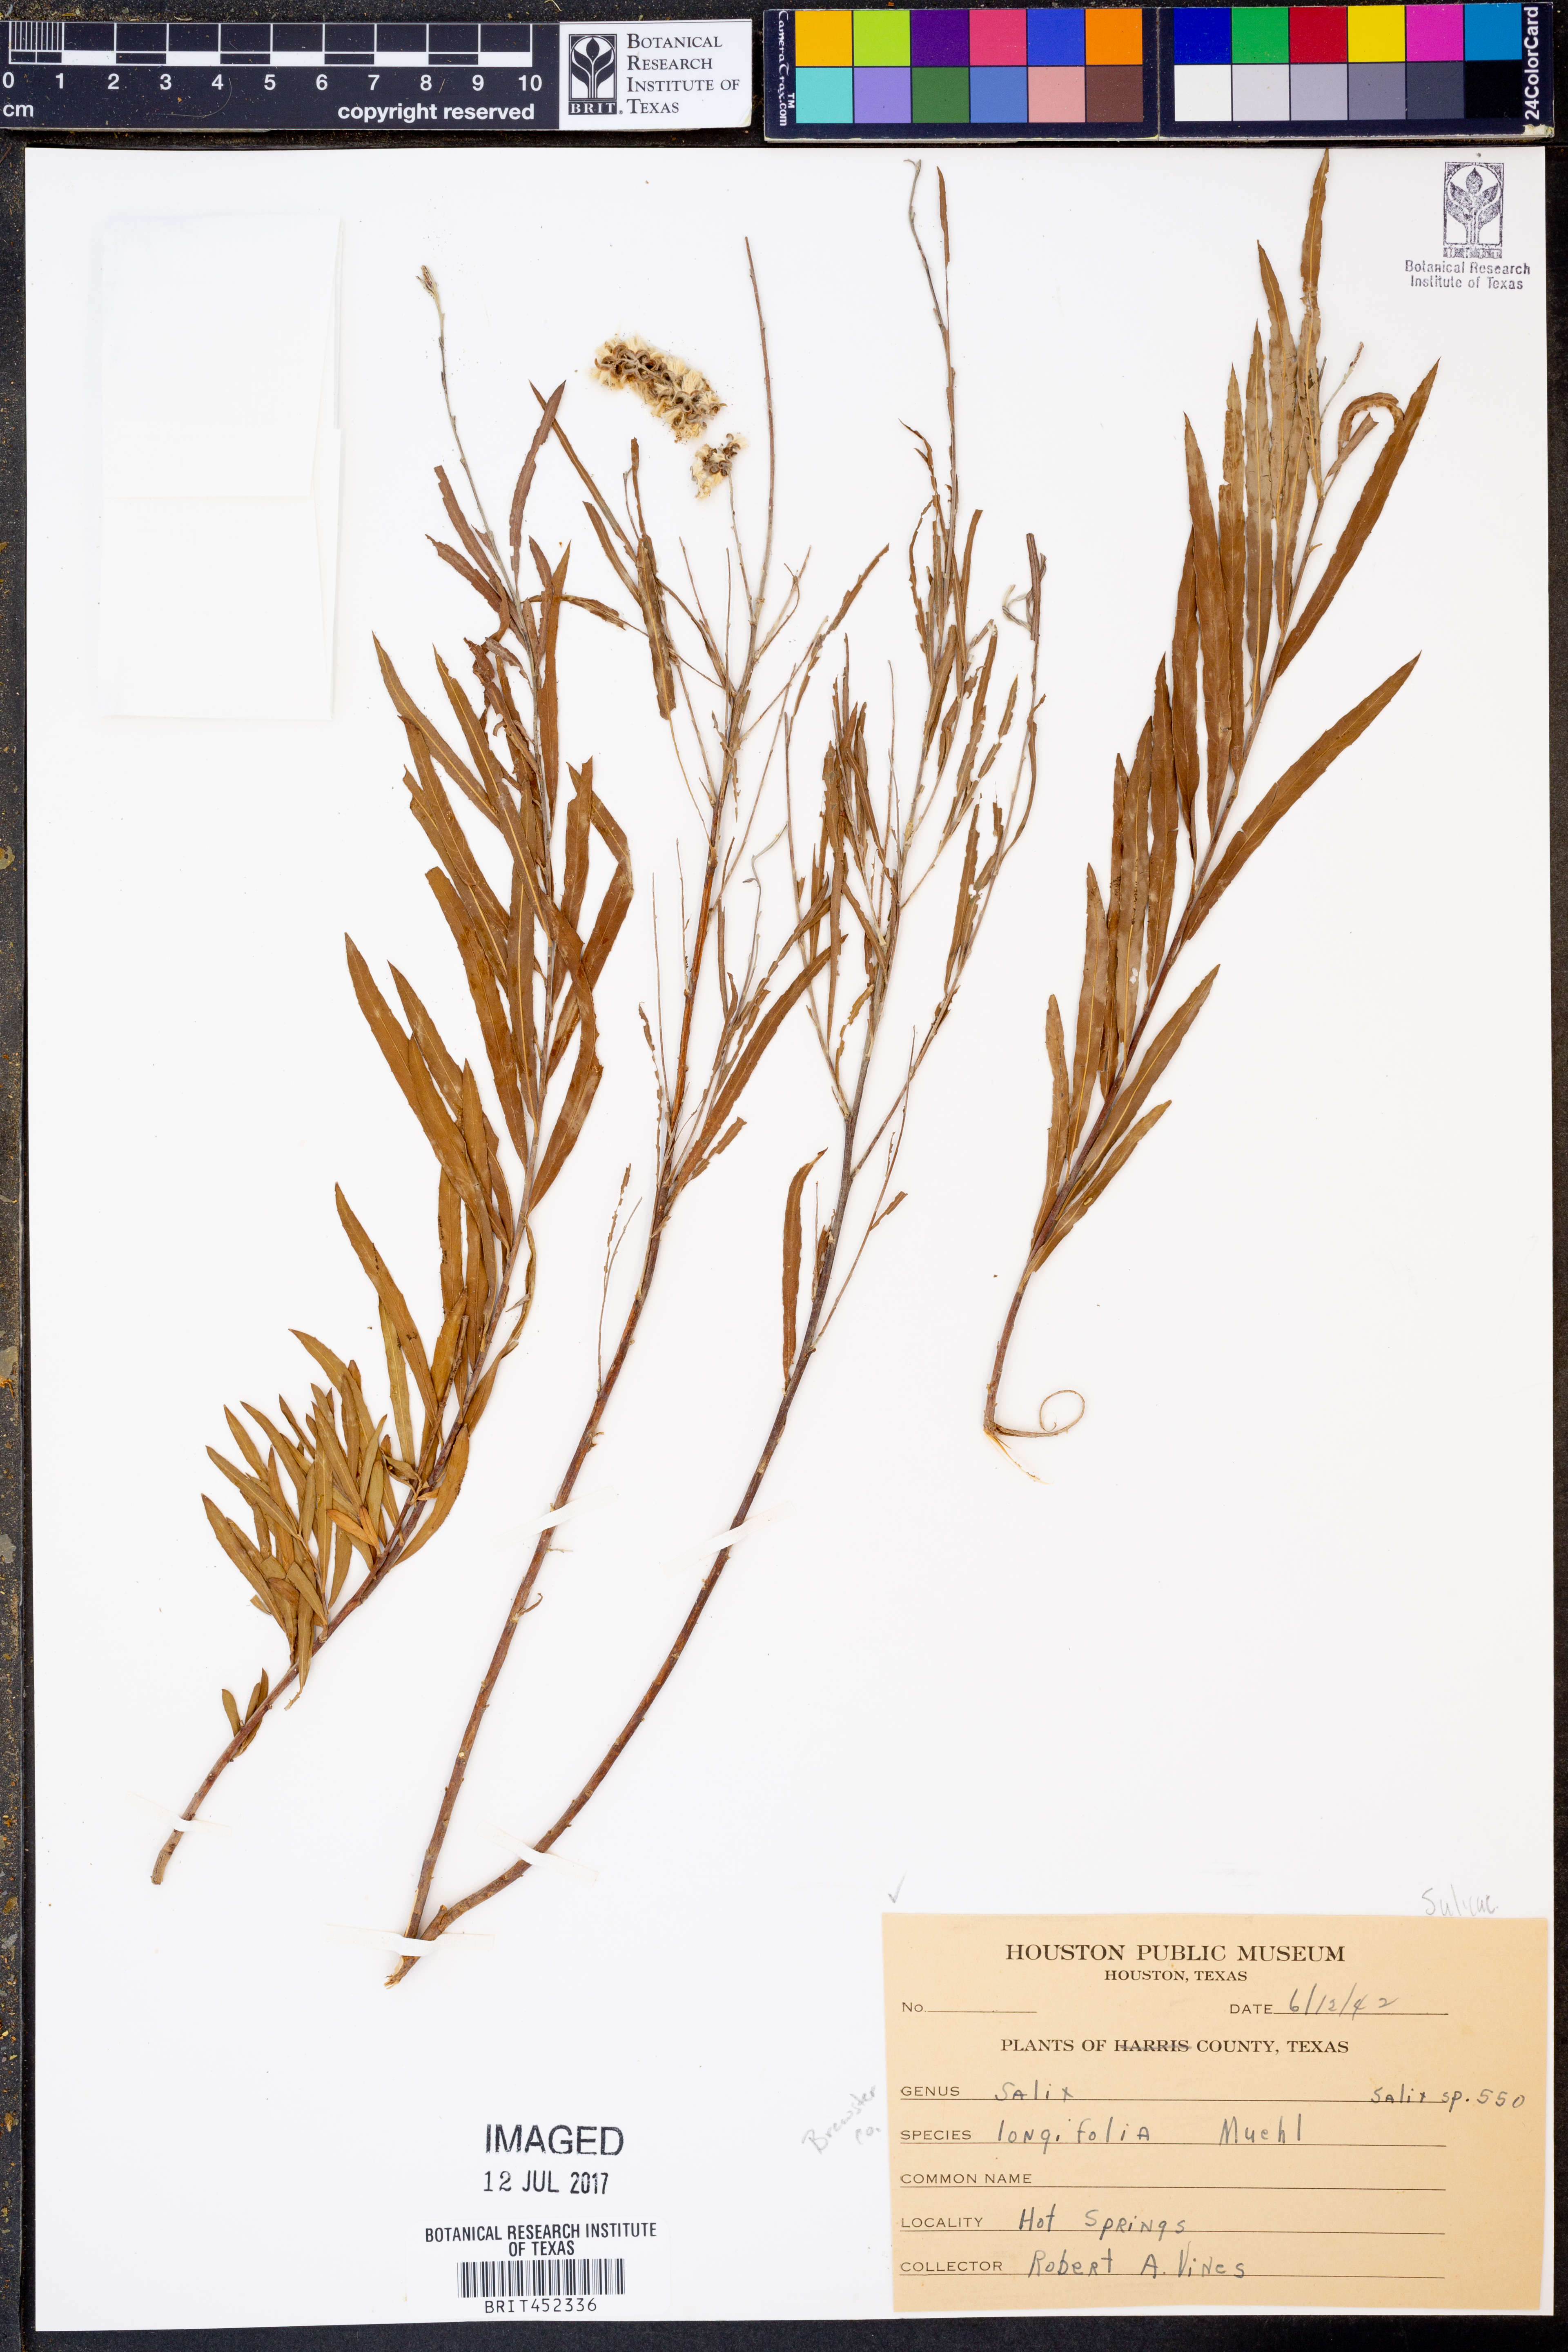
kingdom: Plantae
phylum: Tracheophyta
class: Magnoliopsida
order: Malpighiales
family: Salicaceae
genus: Salix
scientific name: Salix interior
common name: Sandbar willow
